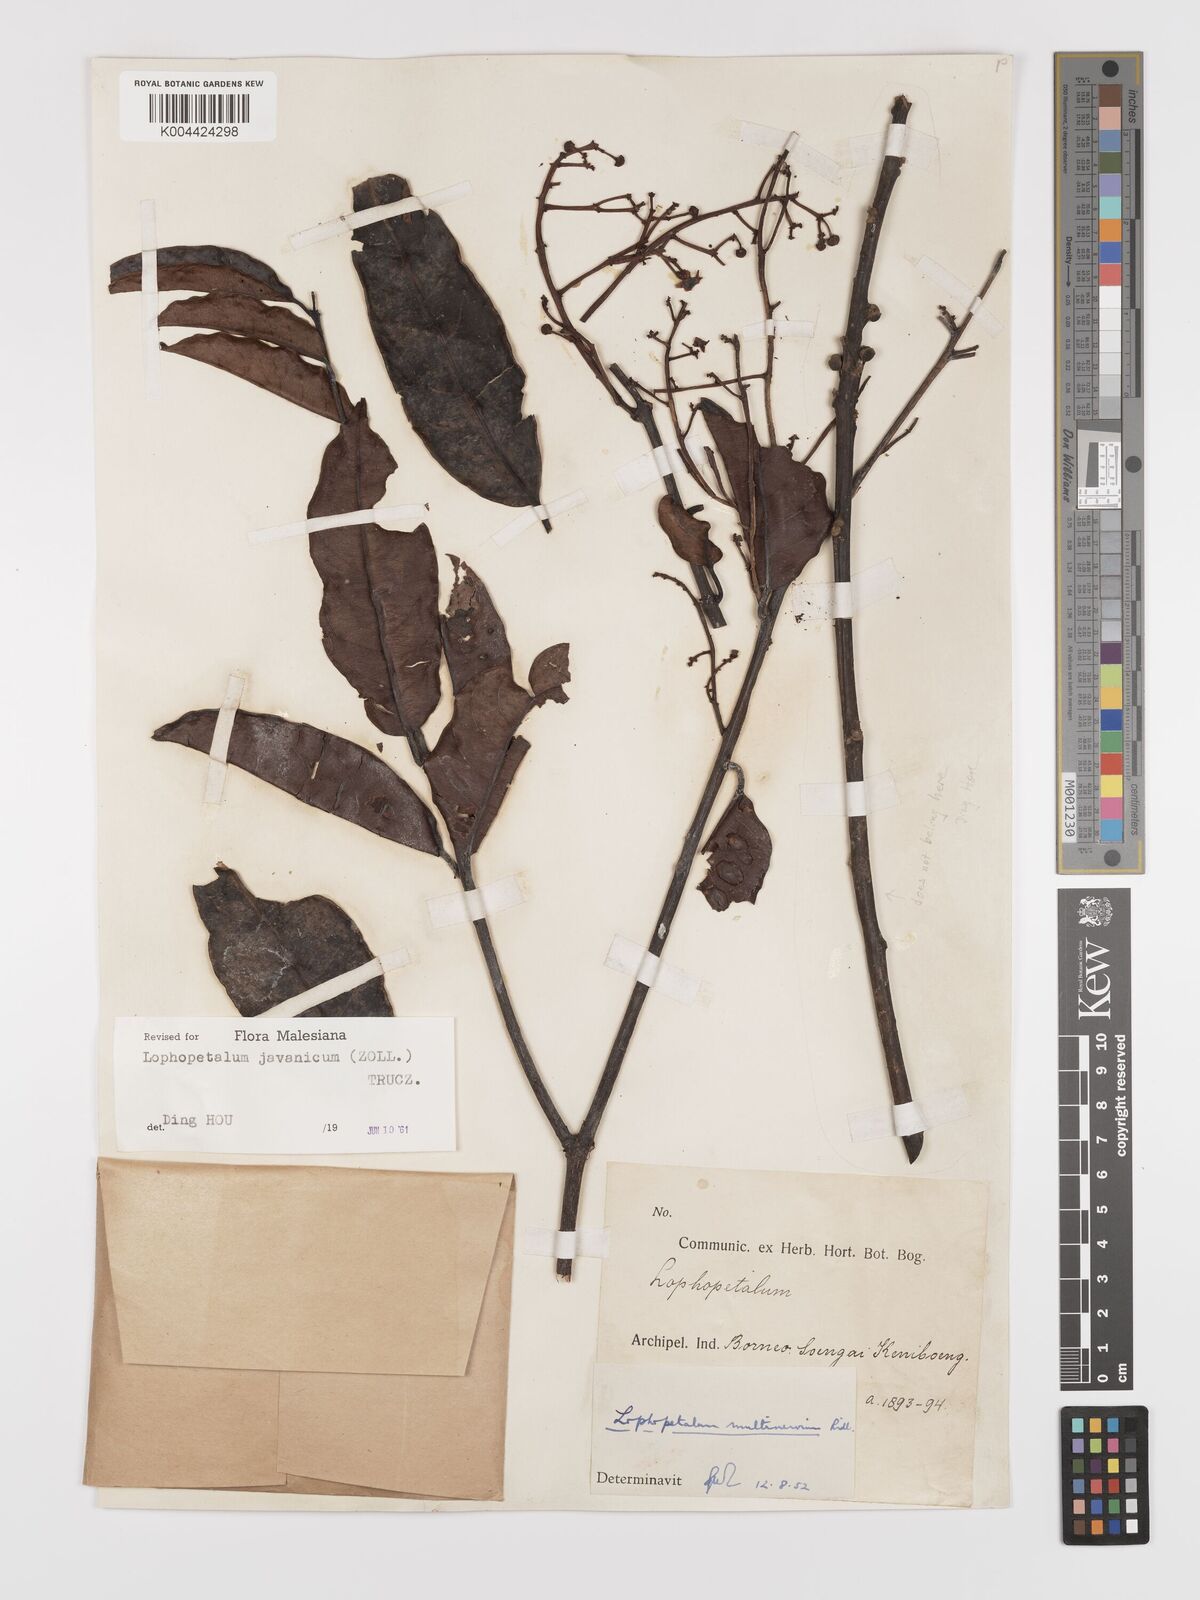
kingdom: Plantae
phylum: Tracheophyta
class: Magnoliopsida
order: Celastrales
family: Celastraceae
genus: Lophopetalum
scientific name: Lophopetalum javanicum
